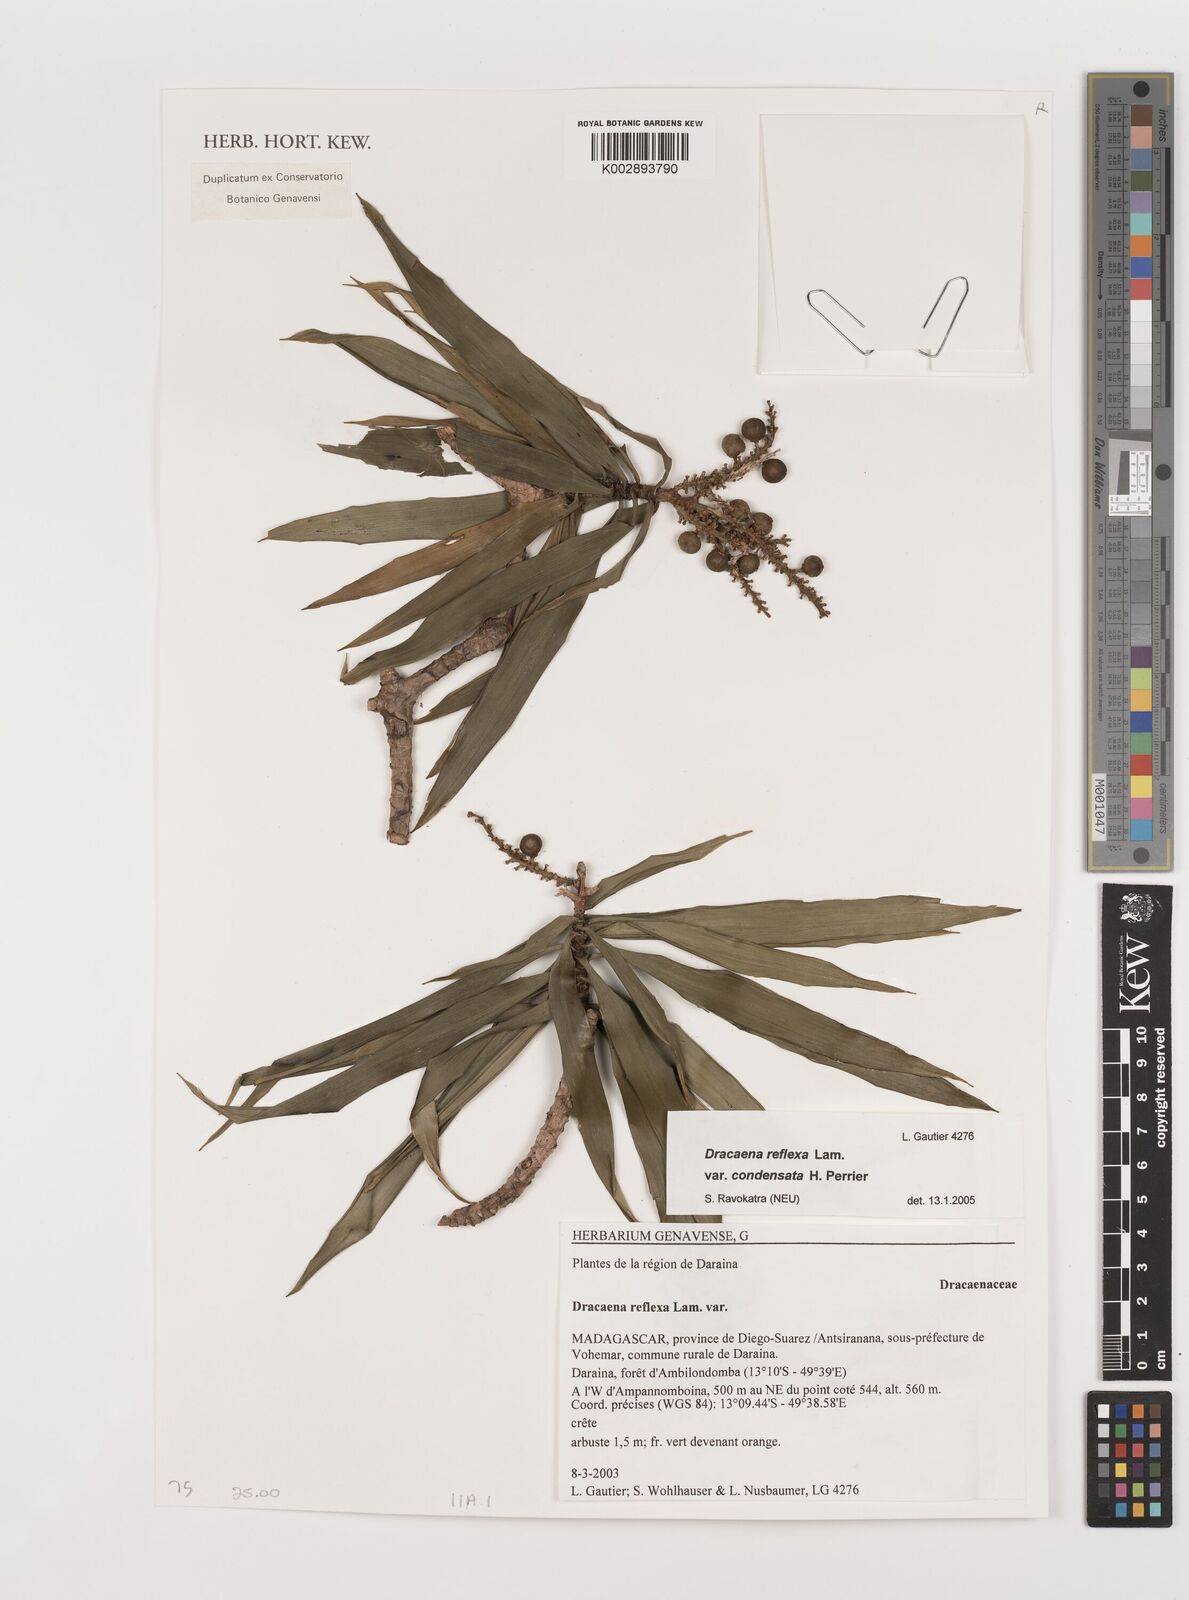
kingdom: Plantae
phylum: Tracheophyta
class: Liliopsida
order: Asparagales
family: Asparagaceae
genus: Dracaena
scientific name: Dracaena reflexa
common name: Song-of-india
